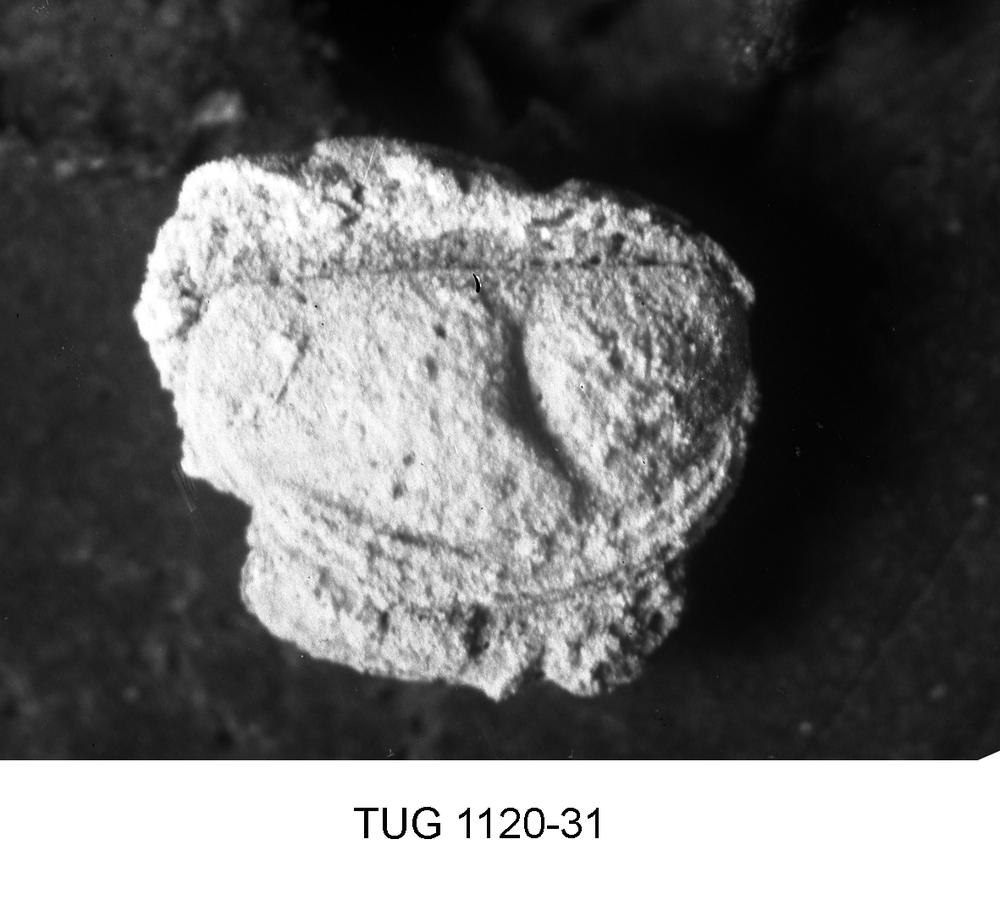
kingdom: Animalia
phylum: Arthropoda
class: Ostracoda
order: Palaeocopida
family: Tetradellidae
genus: Ctenobolbina
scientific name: Ctenobolbina
